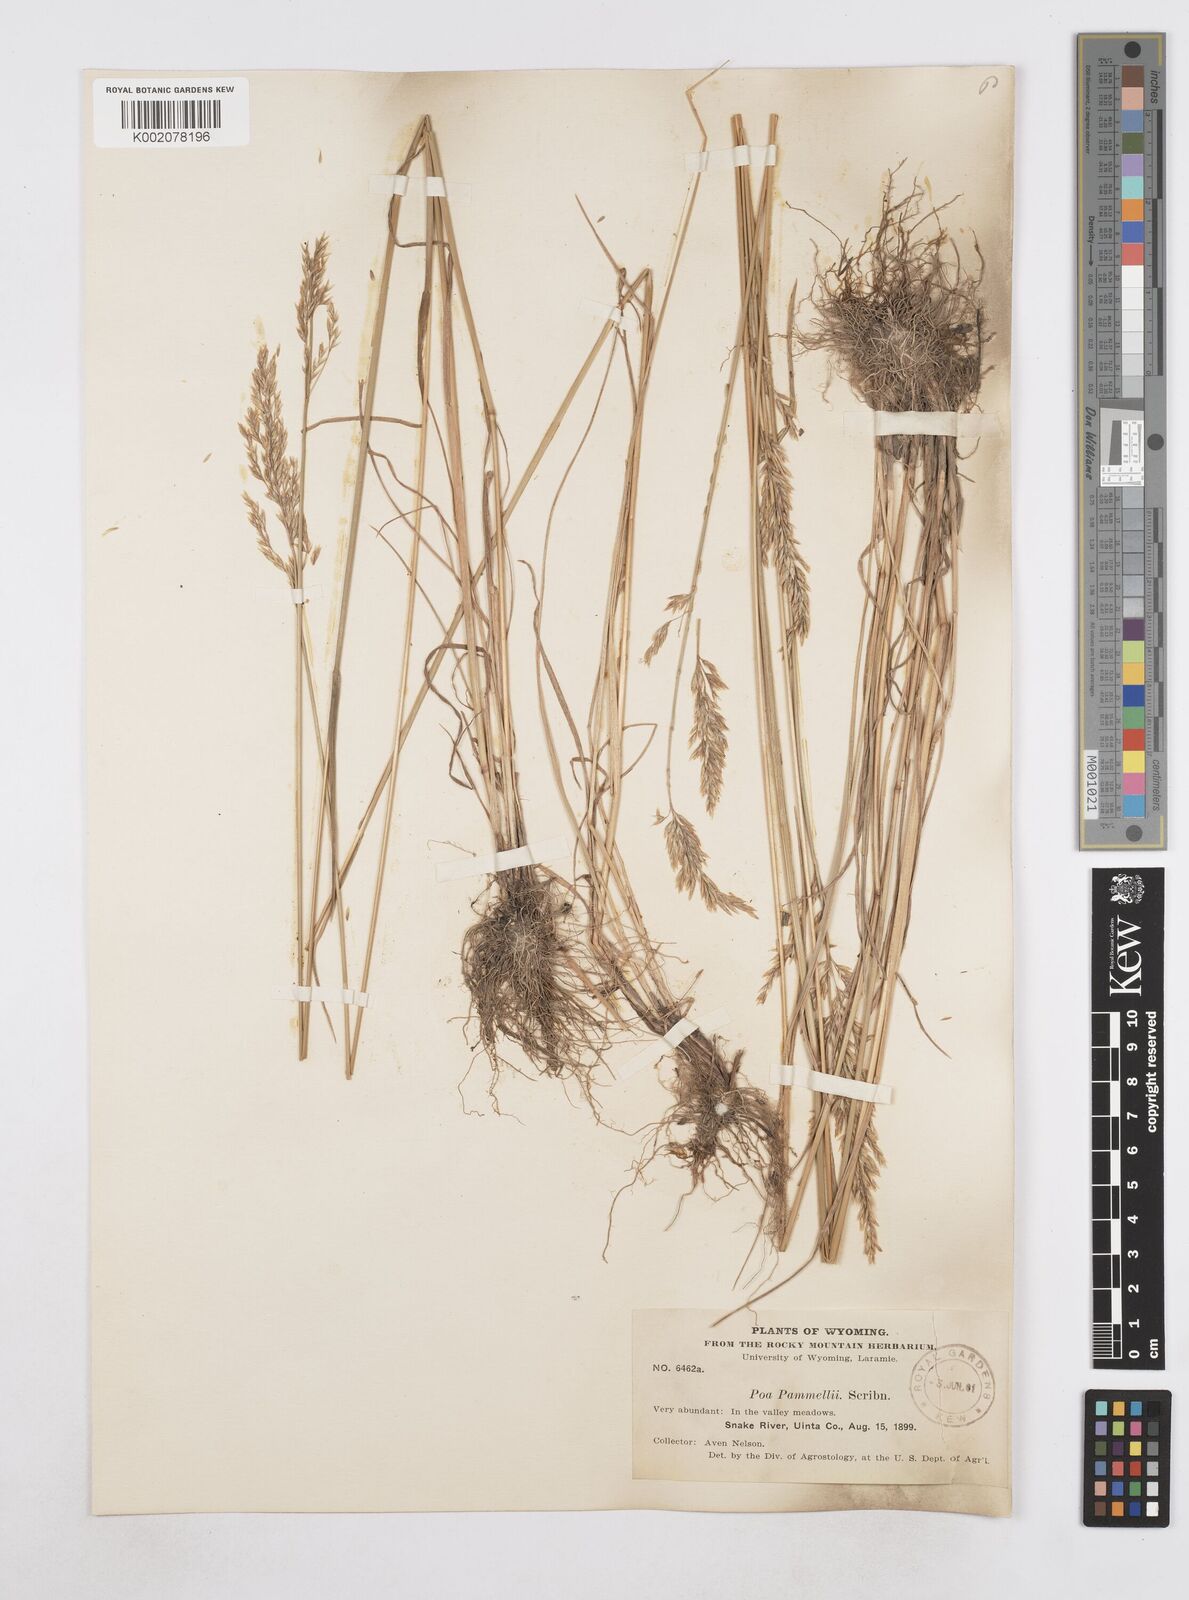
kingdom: Plantae
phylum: Tracheophyta
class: Liliopsida
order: Poales
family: Poaceae
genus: Poa
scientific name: Poa
